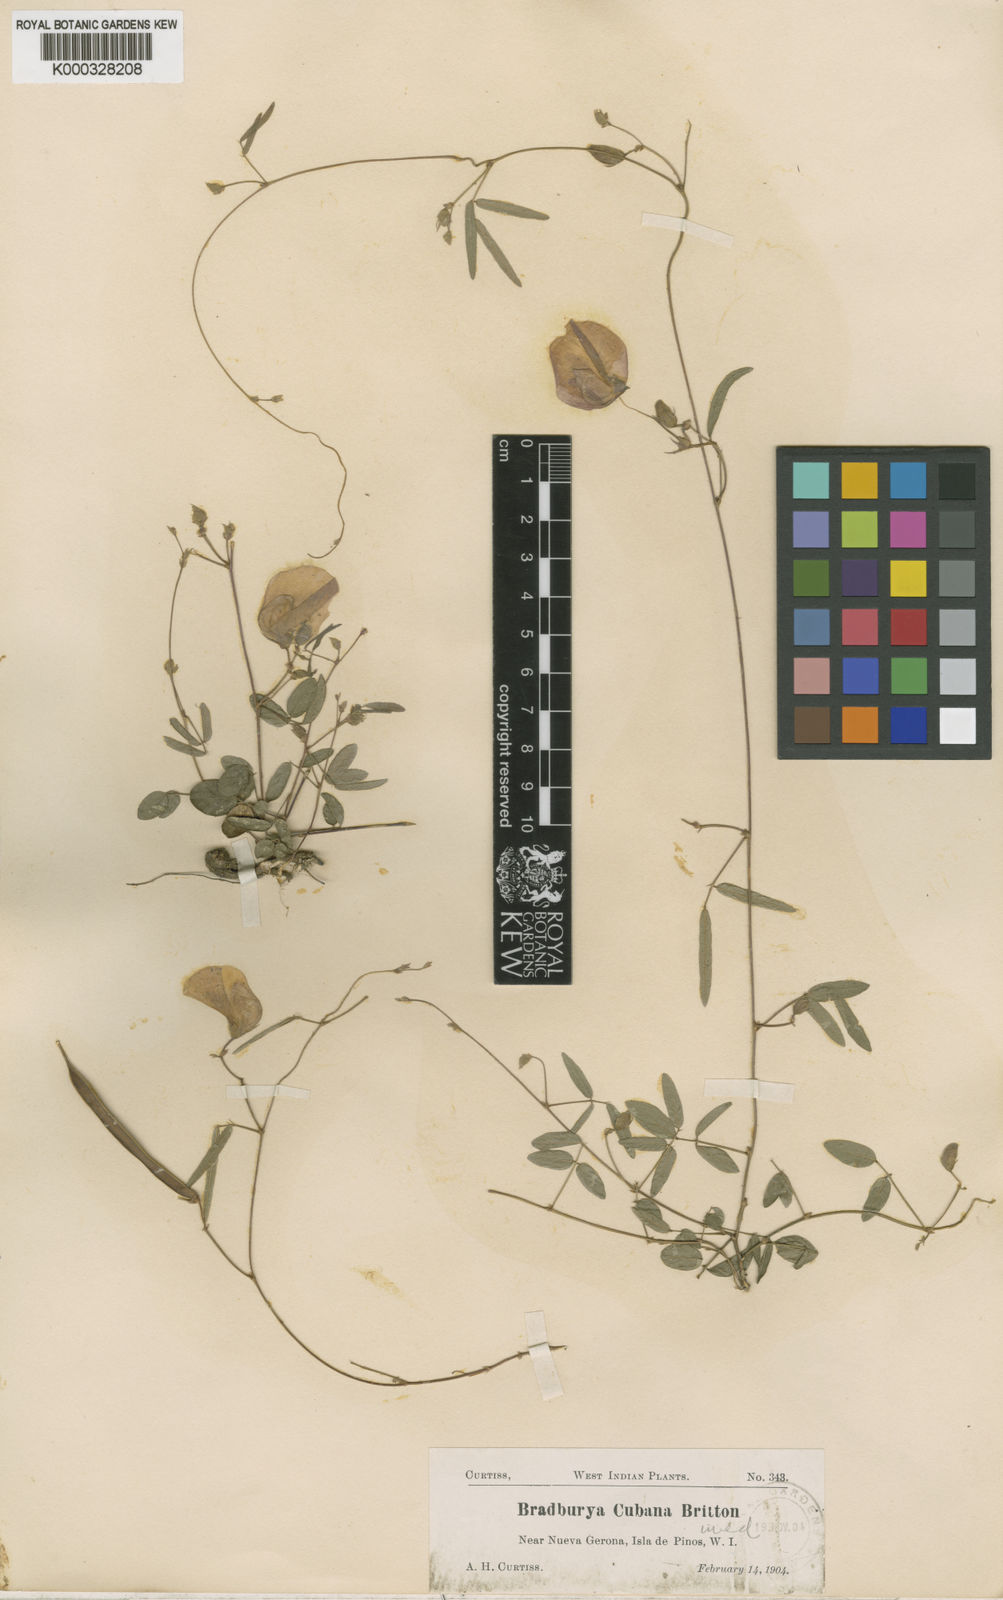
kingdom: Plantae
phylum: Tracheophyta
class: Magnoliopsida
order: Fabales
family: Fabaceae
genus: Centrosema
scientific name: Centrosema
